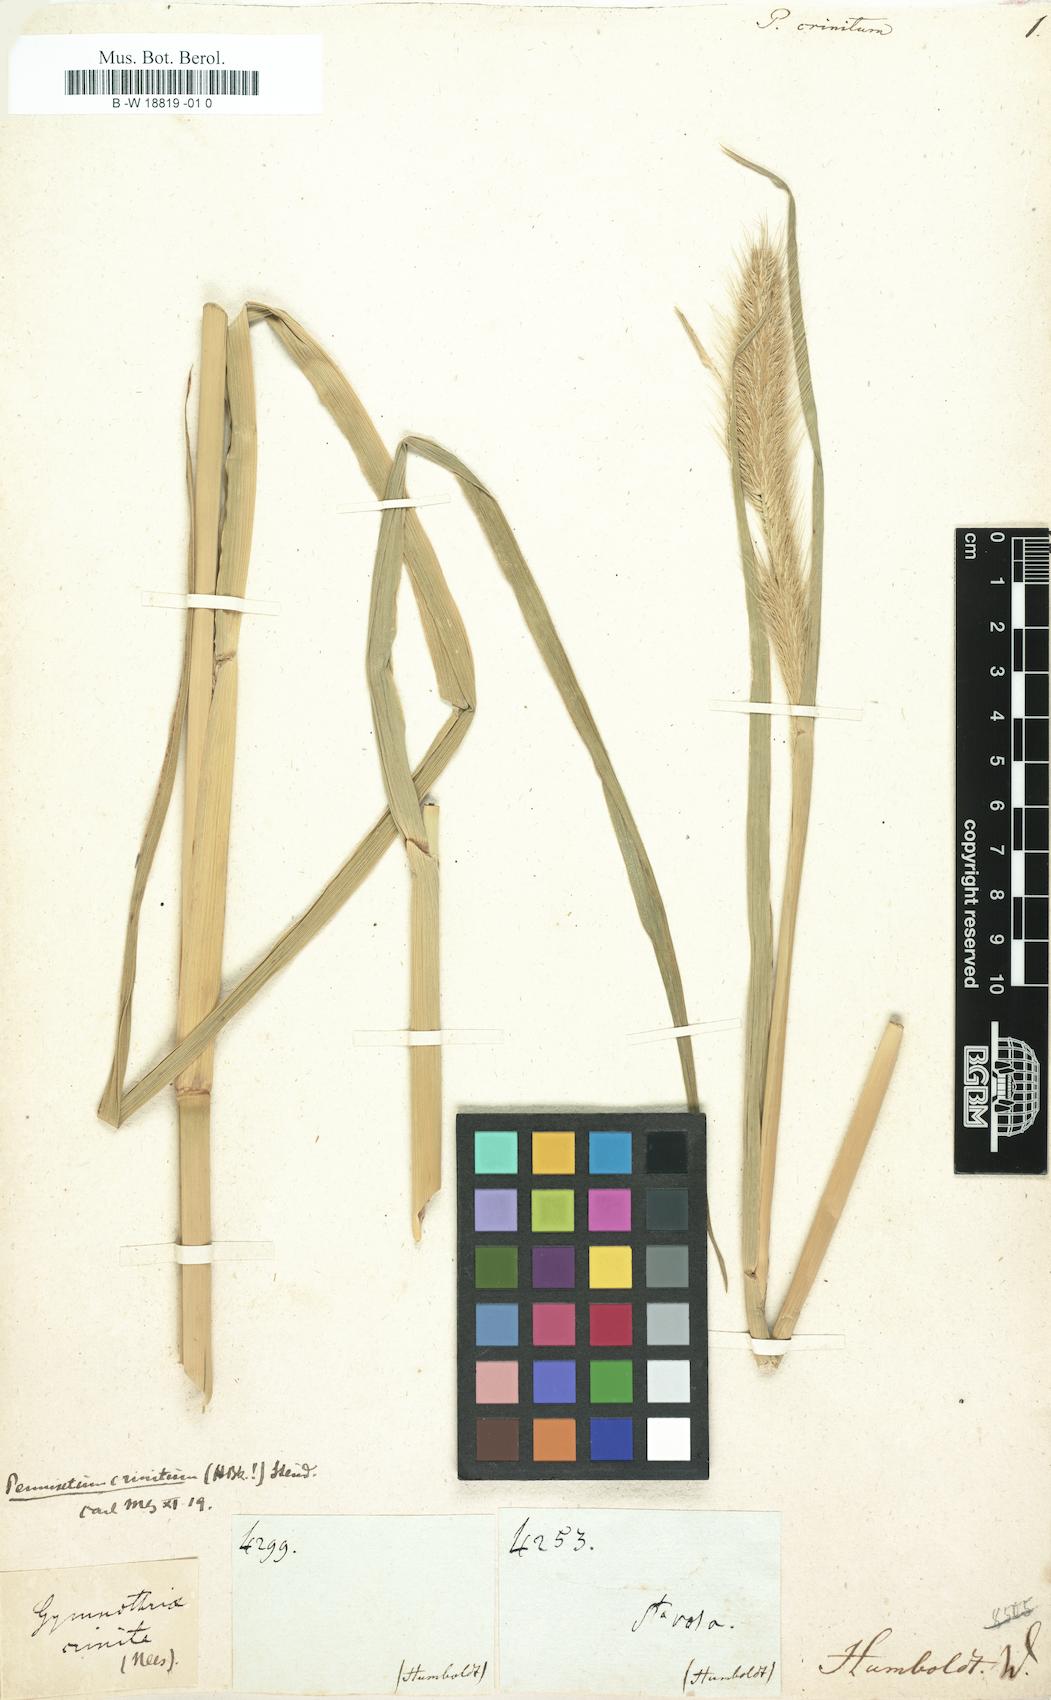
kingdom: Plantae
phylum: Tracheophyta
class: Liliopsida
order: Poales
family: Poaceae
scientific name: Poaceae
